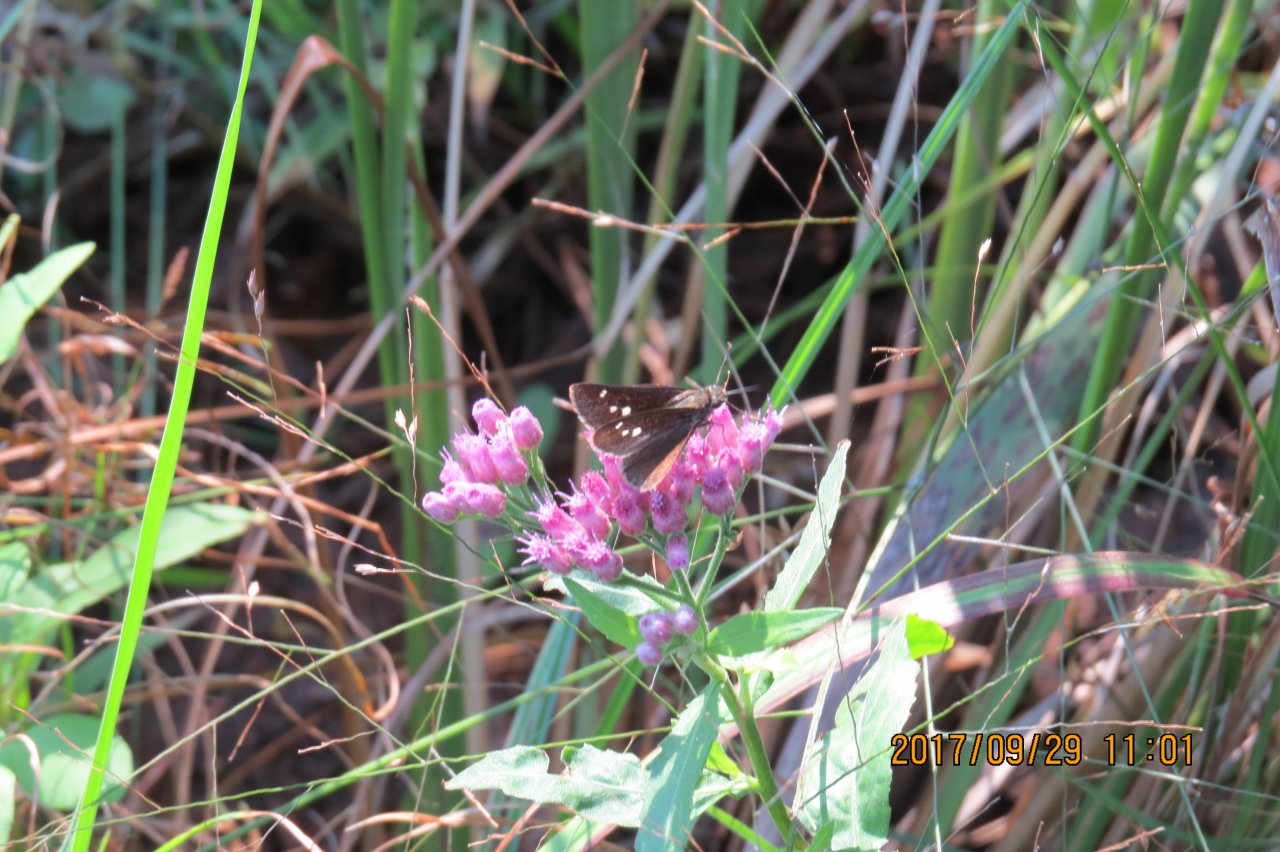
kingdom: Animalia
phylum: Arthropoda
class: Insecta
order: Lepidoptera
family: Hesperiidae
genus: Oligoria
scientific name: Oligoria maculata
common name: Twin-spot Skipper
